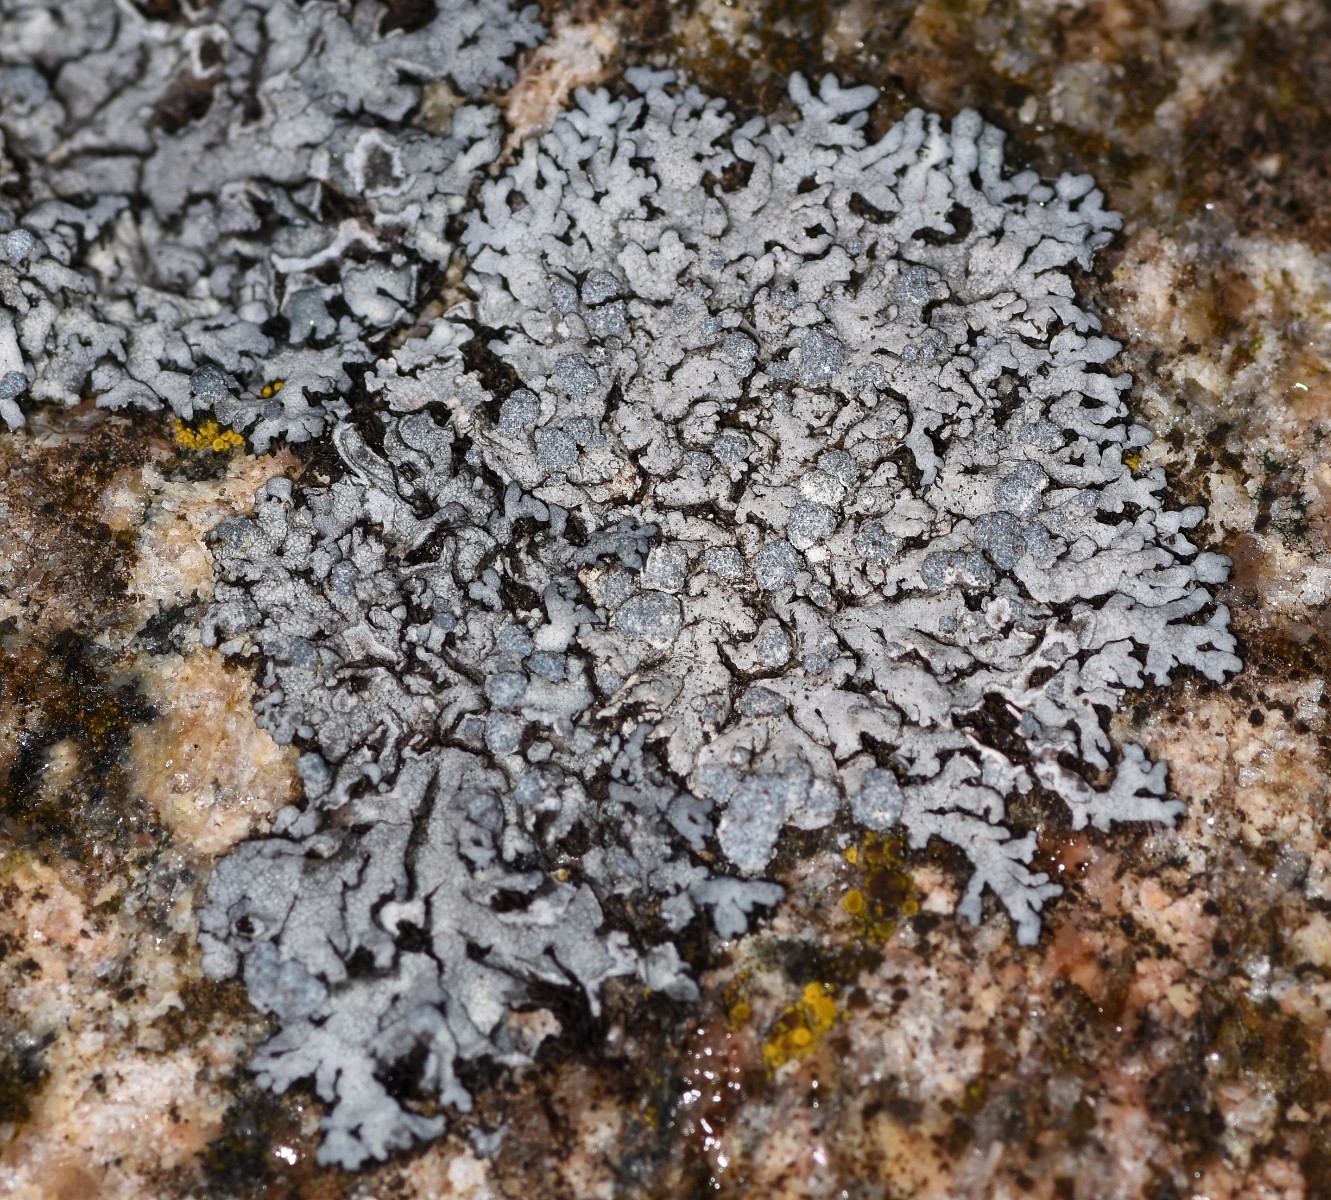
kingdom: Fungi
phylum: Ascomycota
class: Lecanoromycetes
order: Caliciales
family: Physciaceae
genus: Physcia
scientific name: Physcia caesia
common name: blågrå rosetlav
